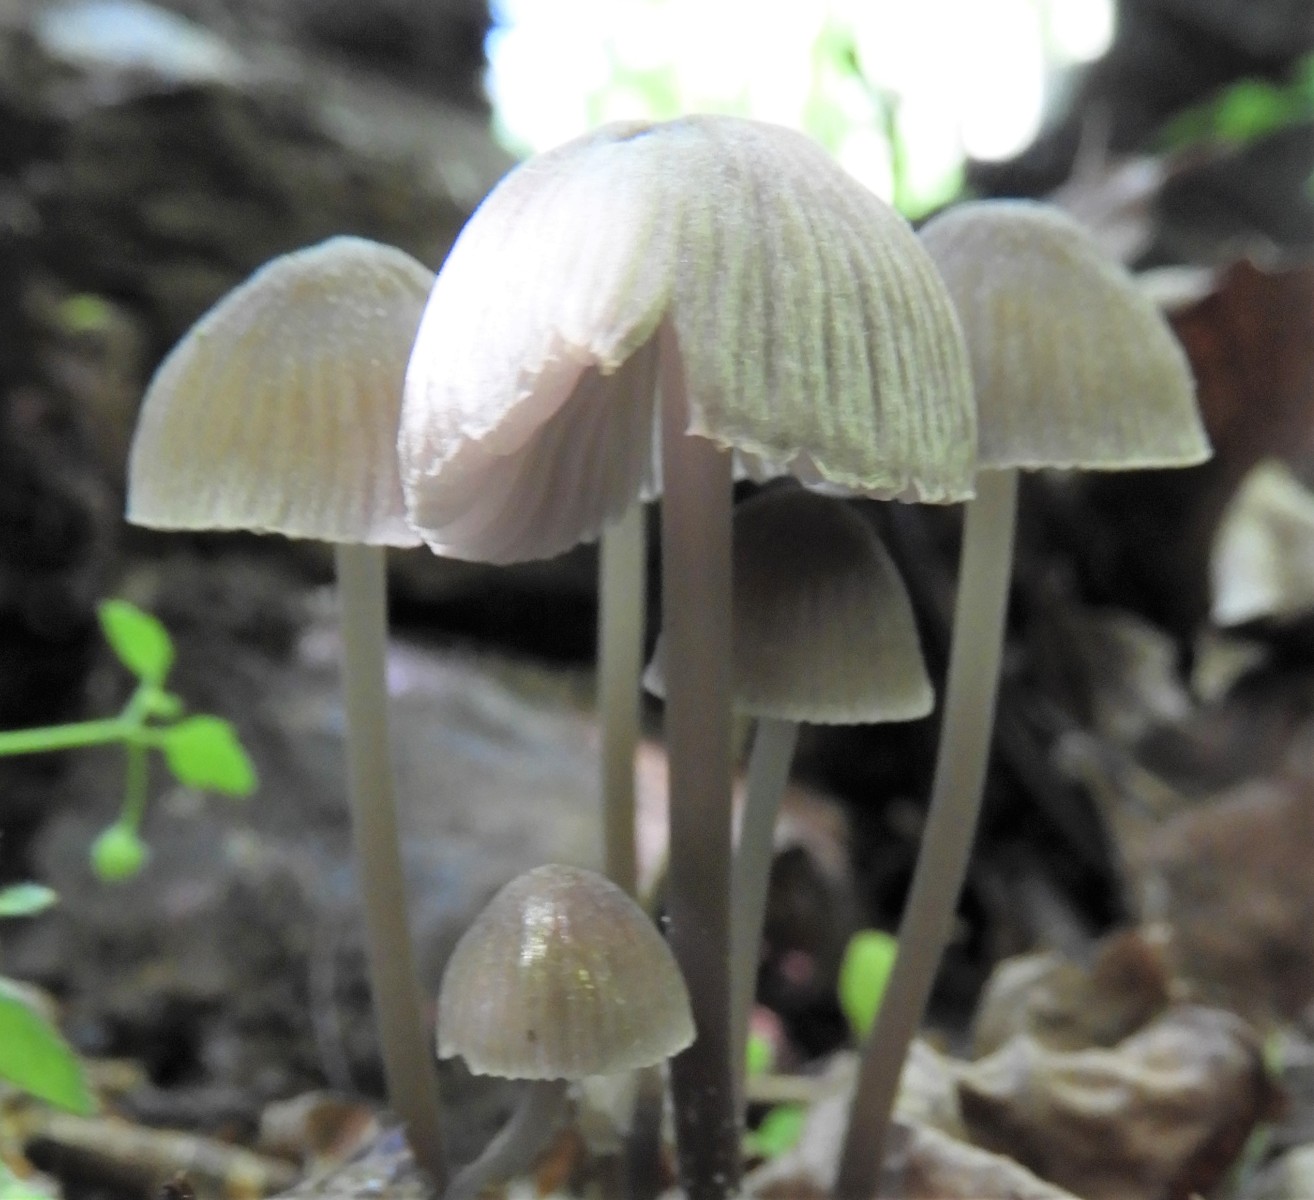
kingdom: Fungi
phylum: Basidiomycota
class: Agaricomycetes
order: Agaricales
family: Mycenaceae
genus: Mycena
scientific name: Mycena abramsii
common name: sommer-huesvamp
